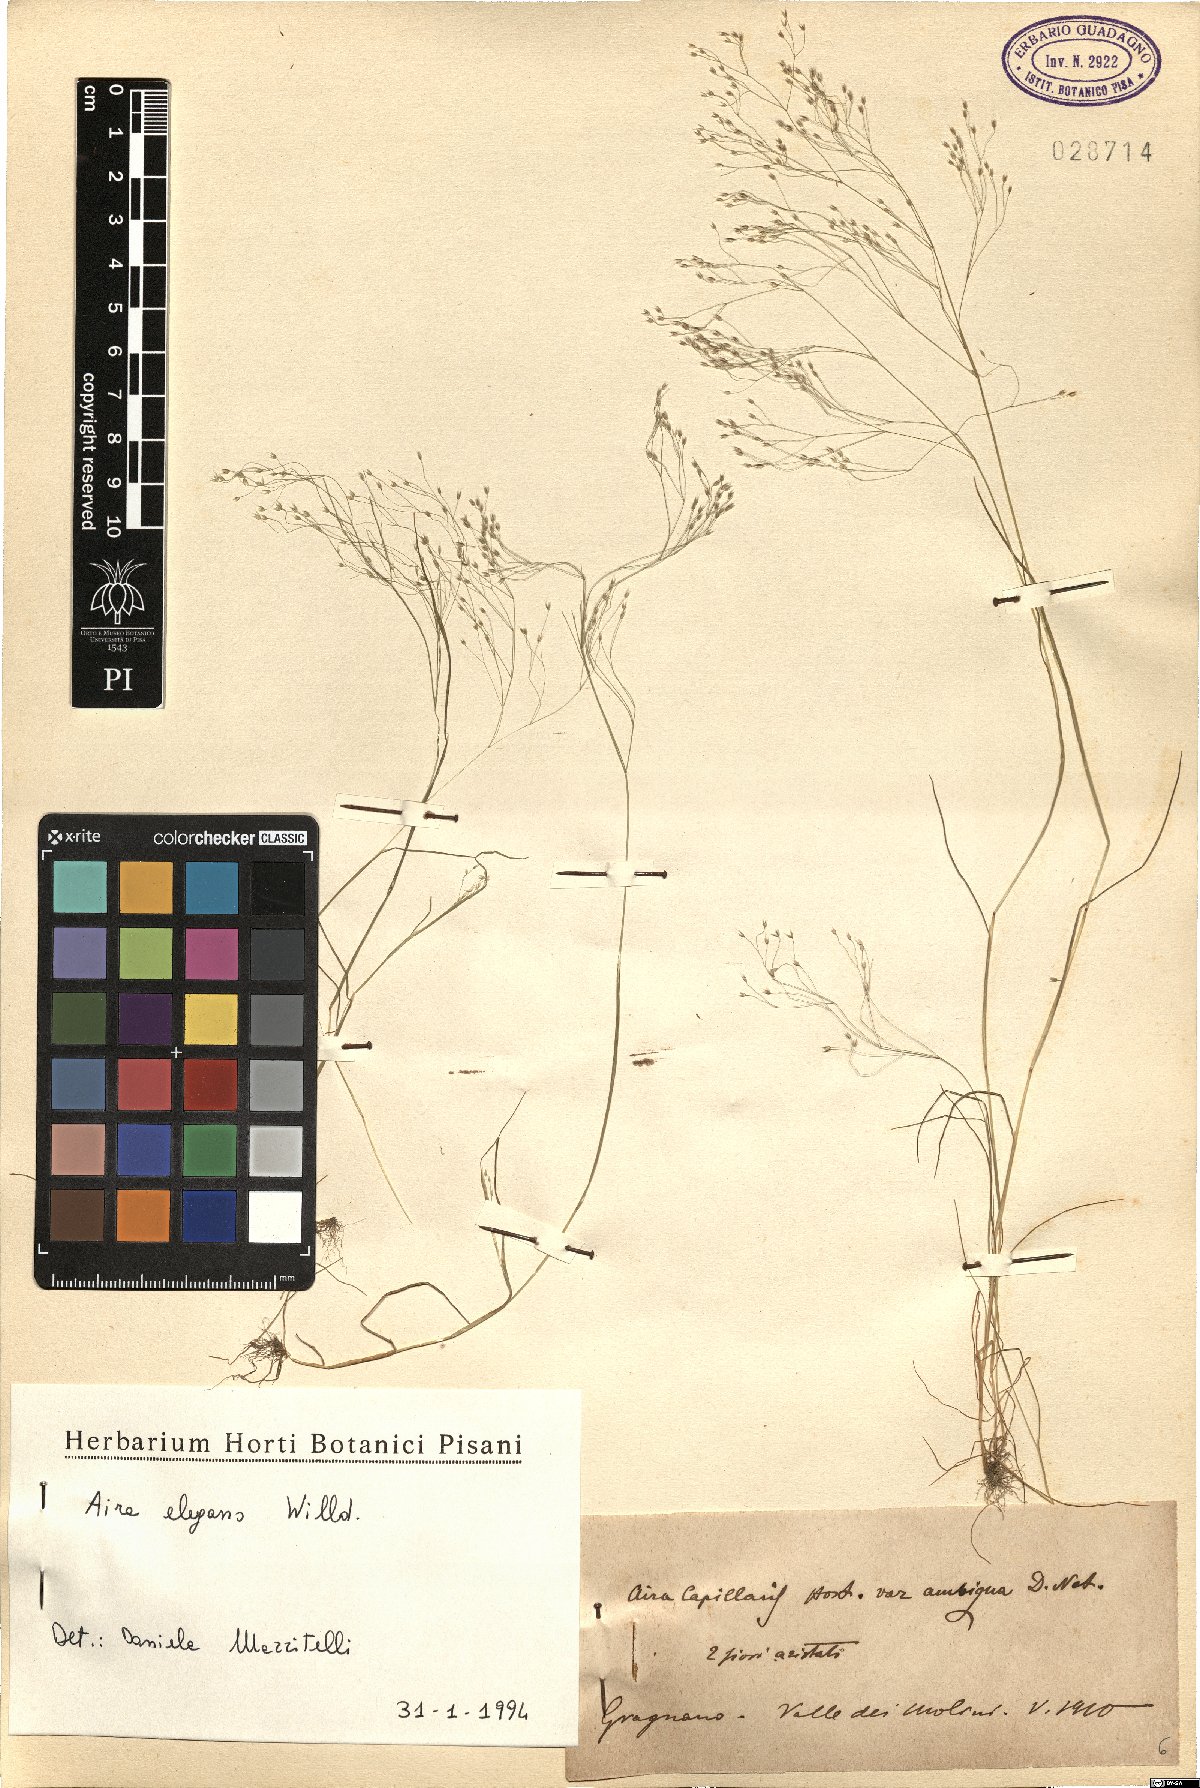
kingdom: Plantae
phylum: Tracheophyta
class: Liliopsida
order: Poales
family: Poaceae
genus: Aira
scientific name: Aira elegans
